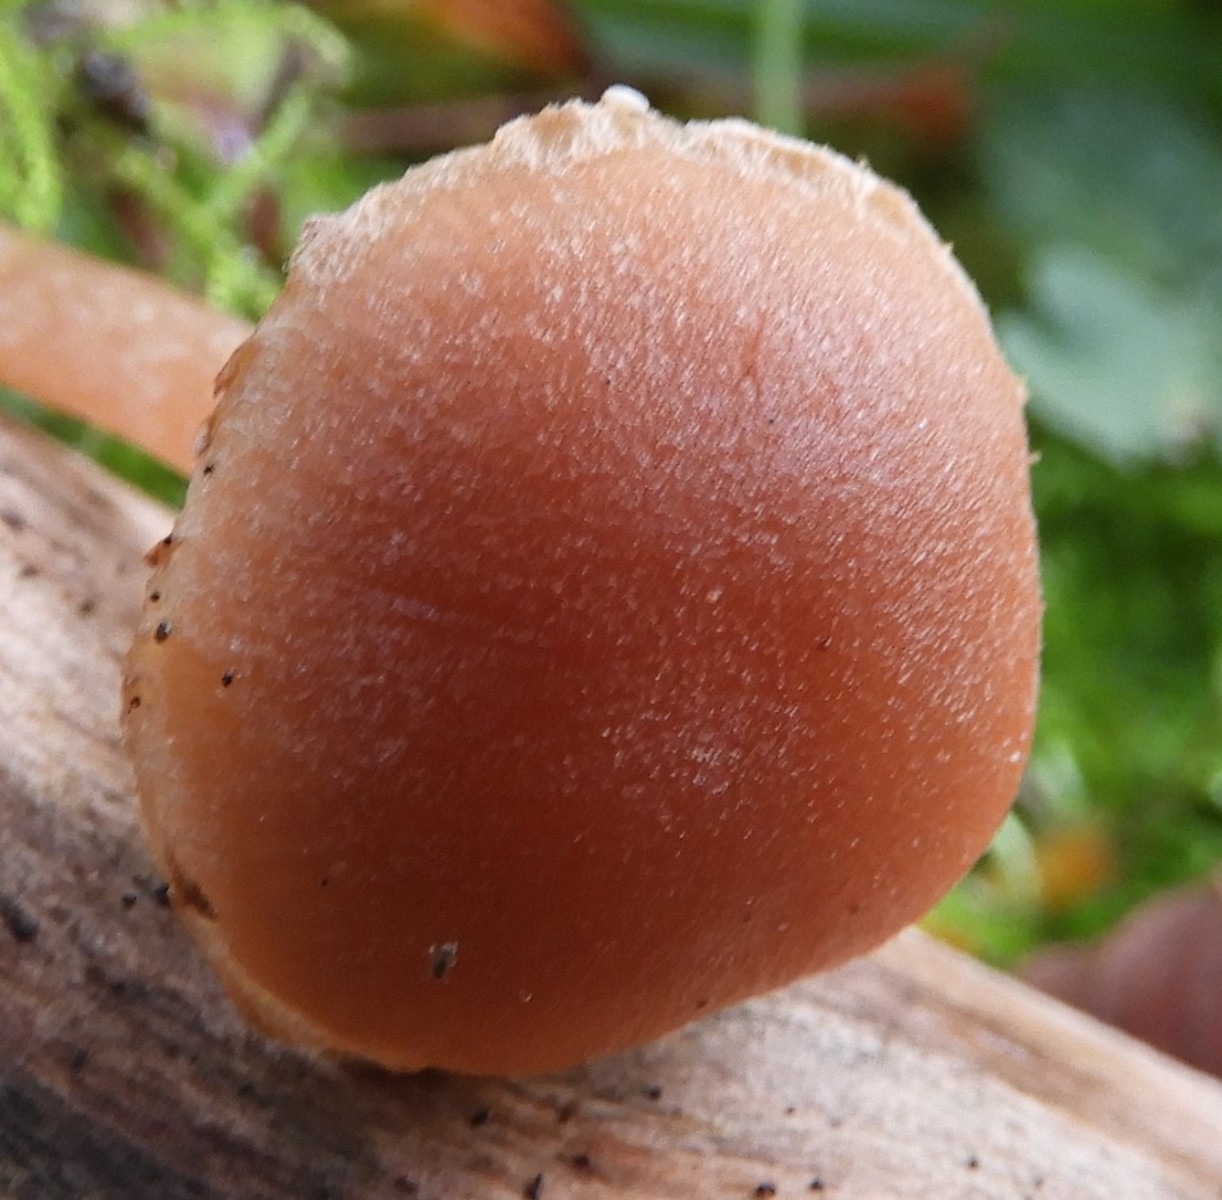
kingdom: Fungi
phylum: Basidiomycota
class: Agaricomycetes
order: Agaricales
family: Hydnangiaceae
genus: Laccaria
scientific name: Laccaria proxima
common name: stor ametysthat
